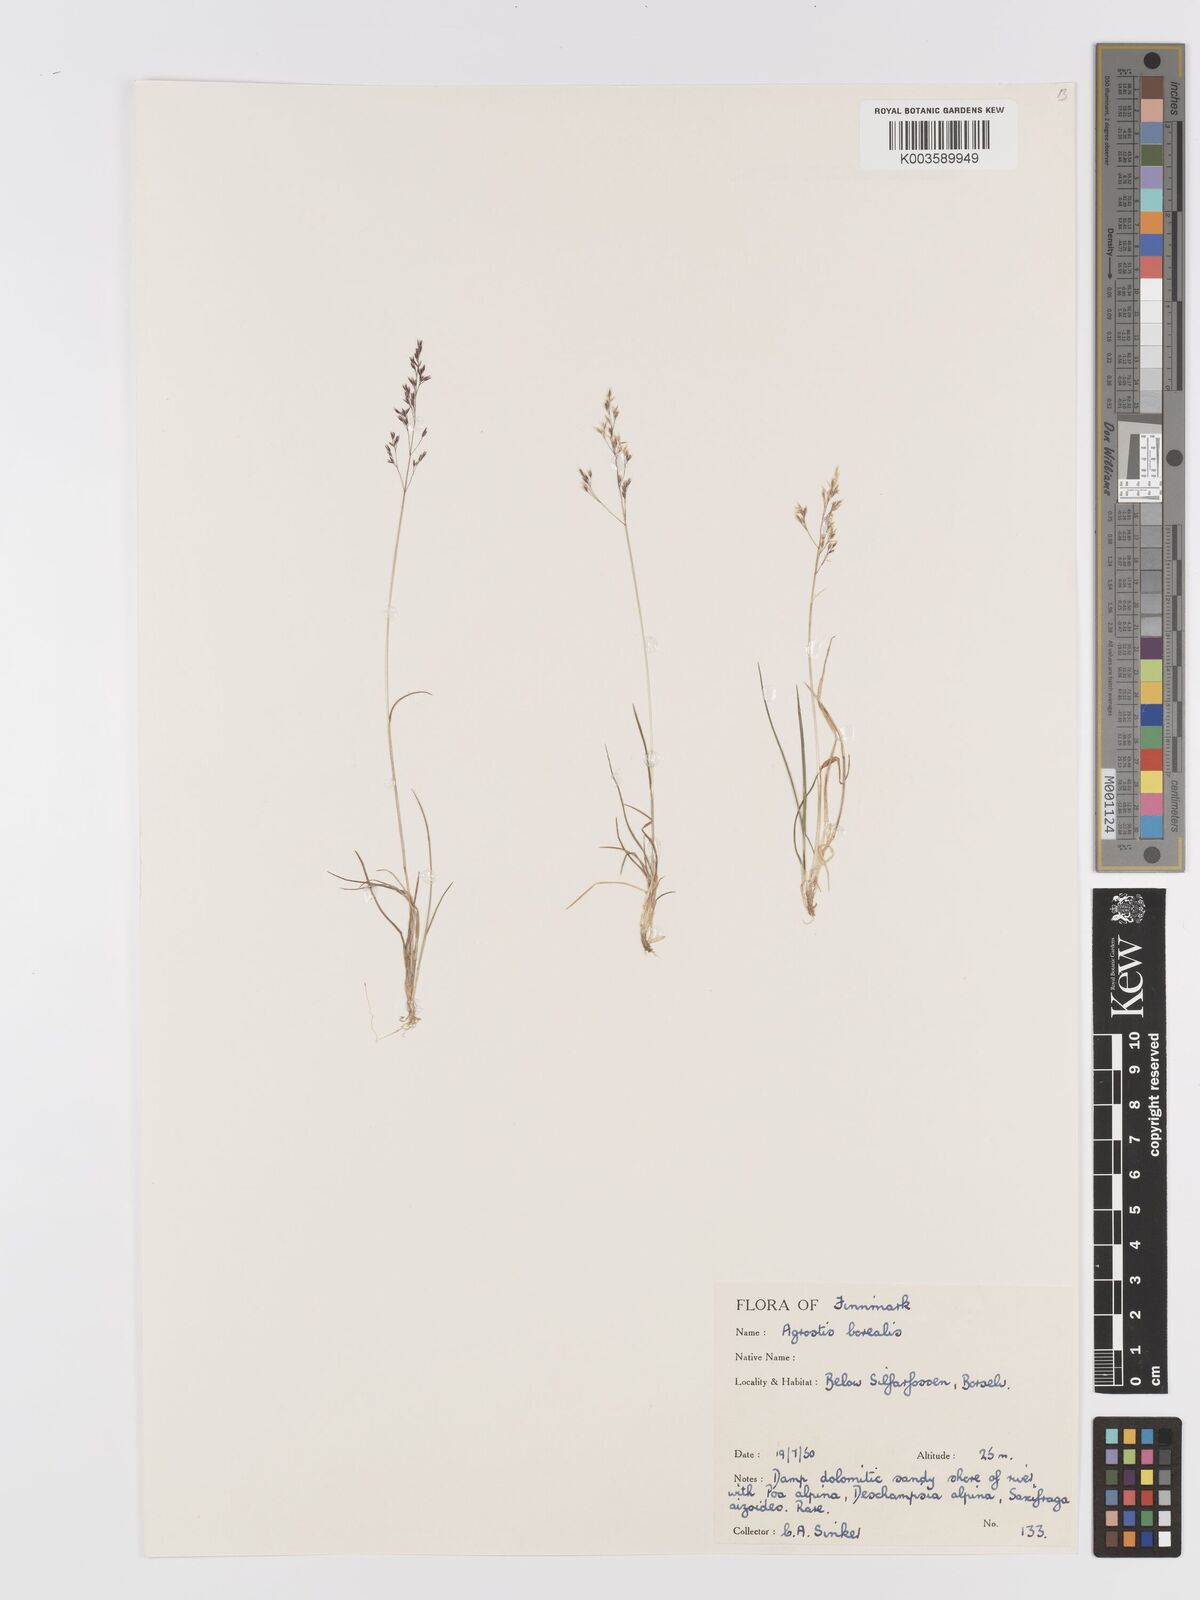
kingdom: Plantae
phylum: Tracheophyta
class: Liliopsida
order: Poales
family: Poaceae
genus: Agrostis
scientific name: Agrostis mertensii
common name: Northern bent
